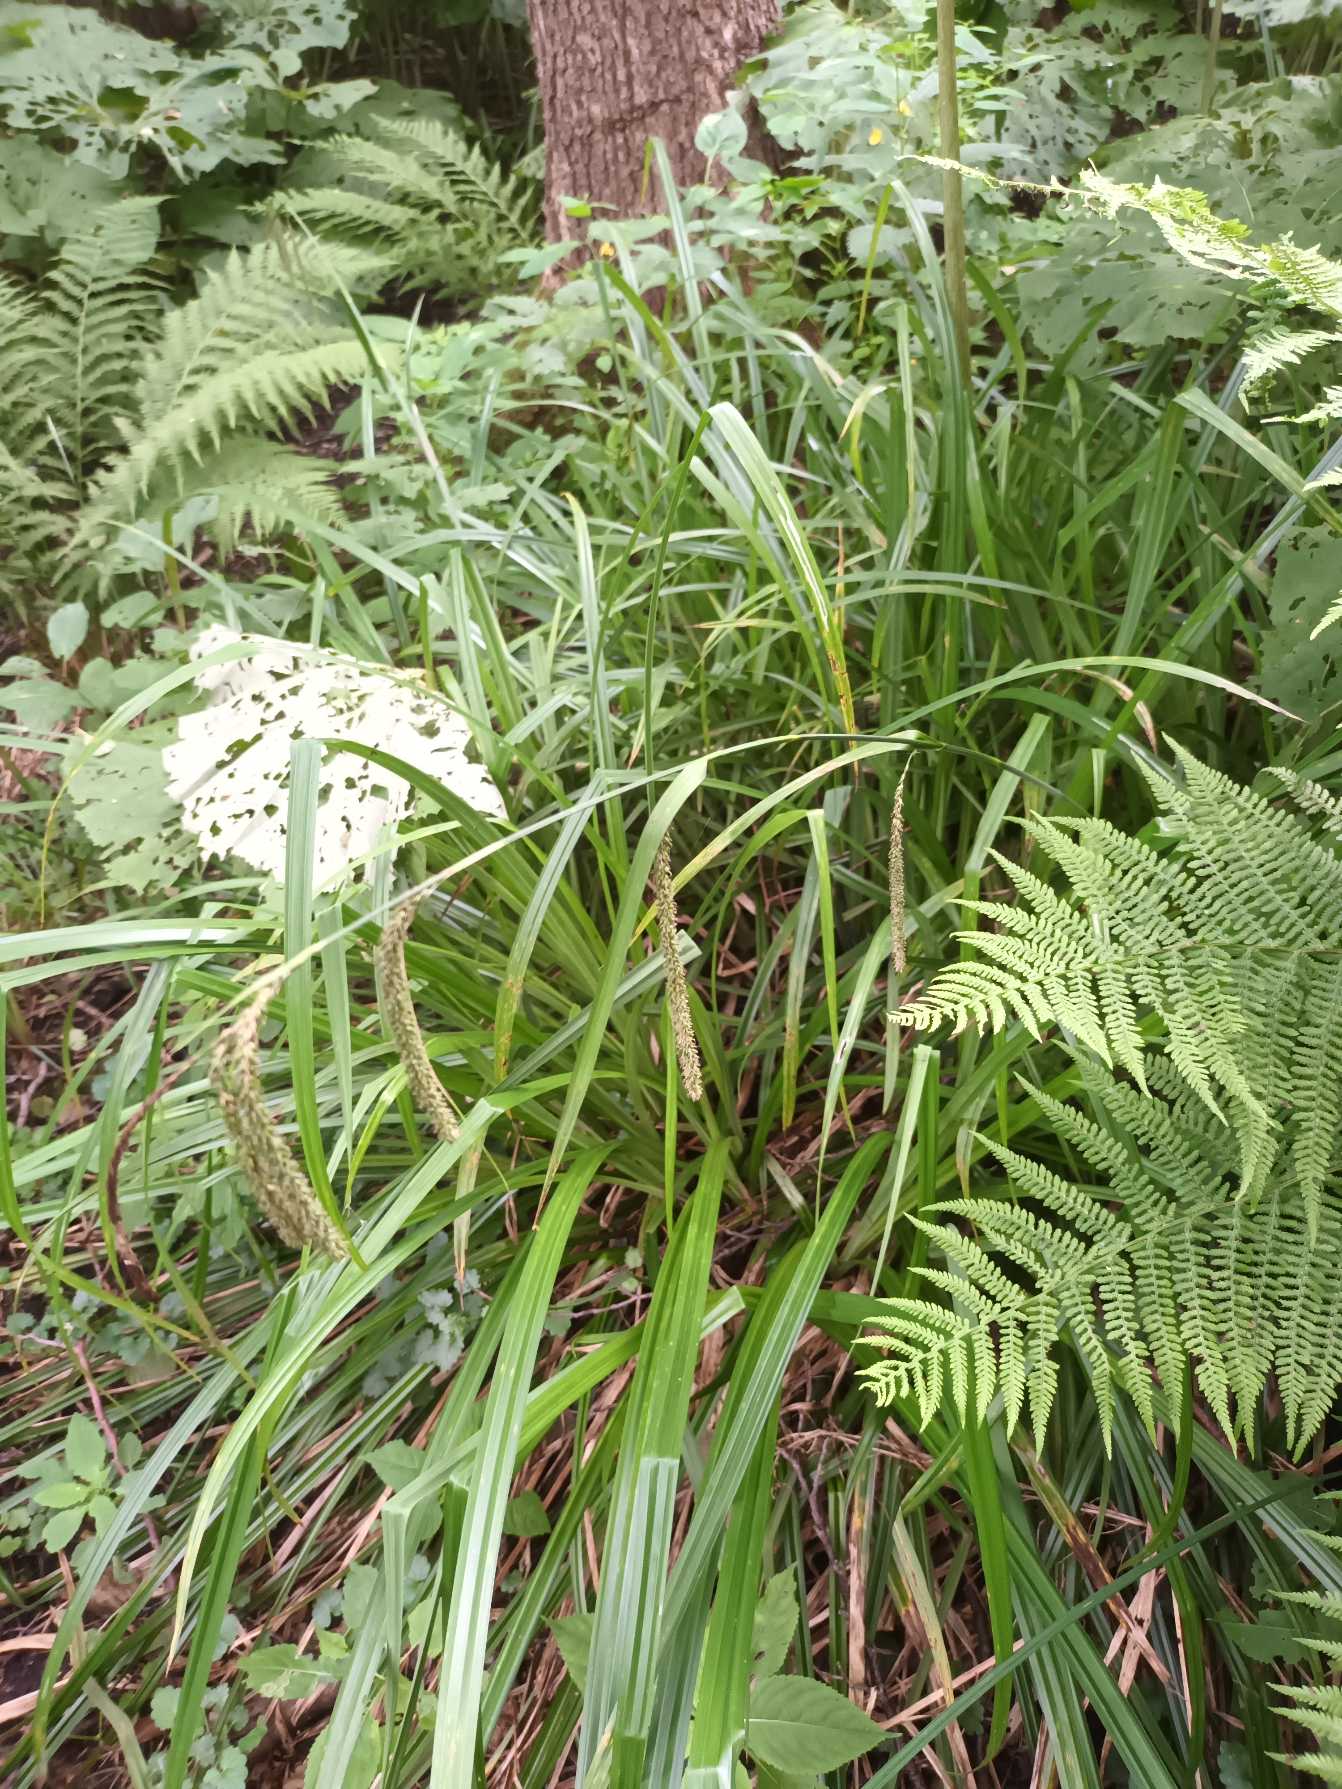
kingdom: Plantae
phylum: Tracheophyta
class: Liliopsida
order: Poales
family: Cyperaceae
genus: Carex
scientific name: Carex pendula
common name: Kæmpe-star
